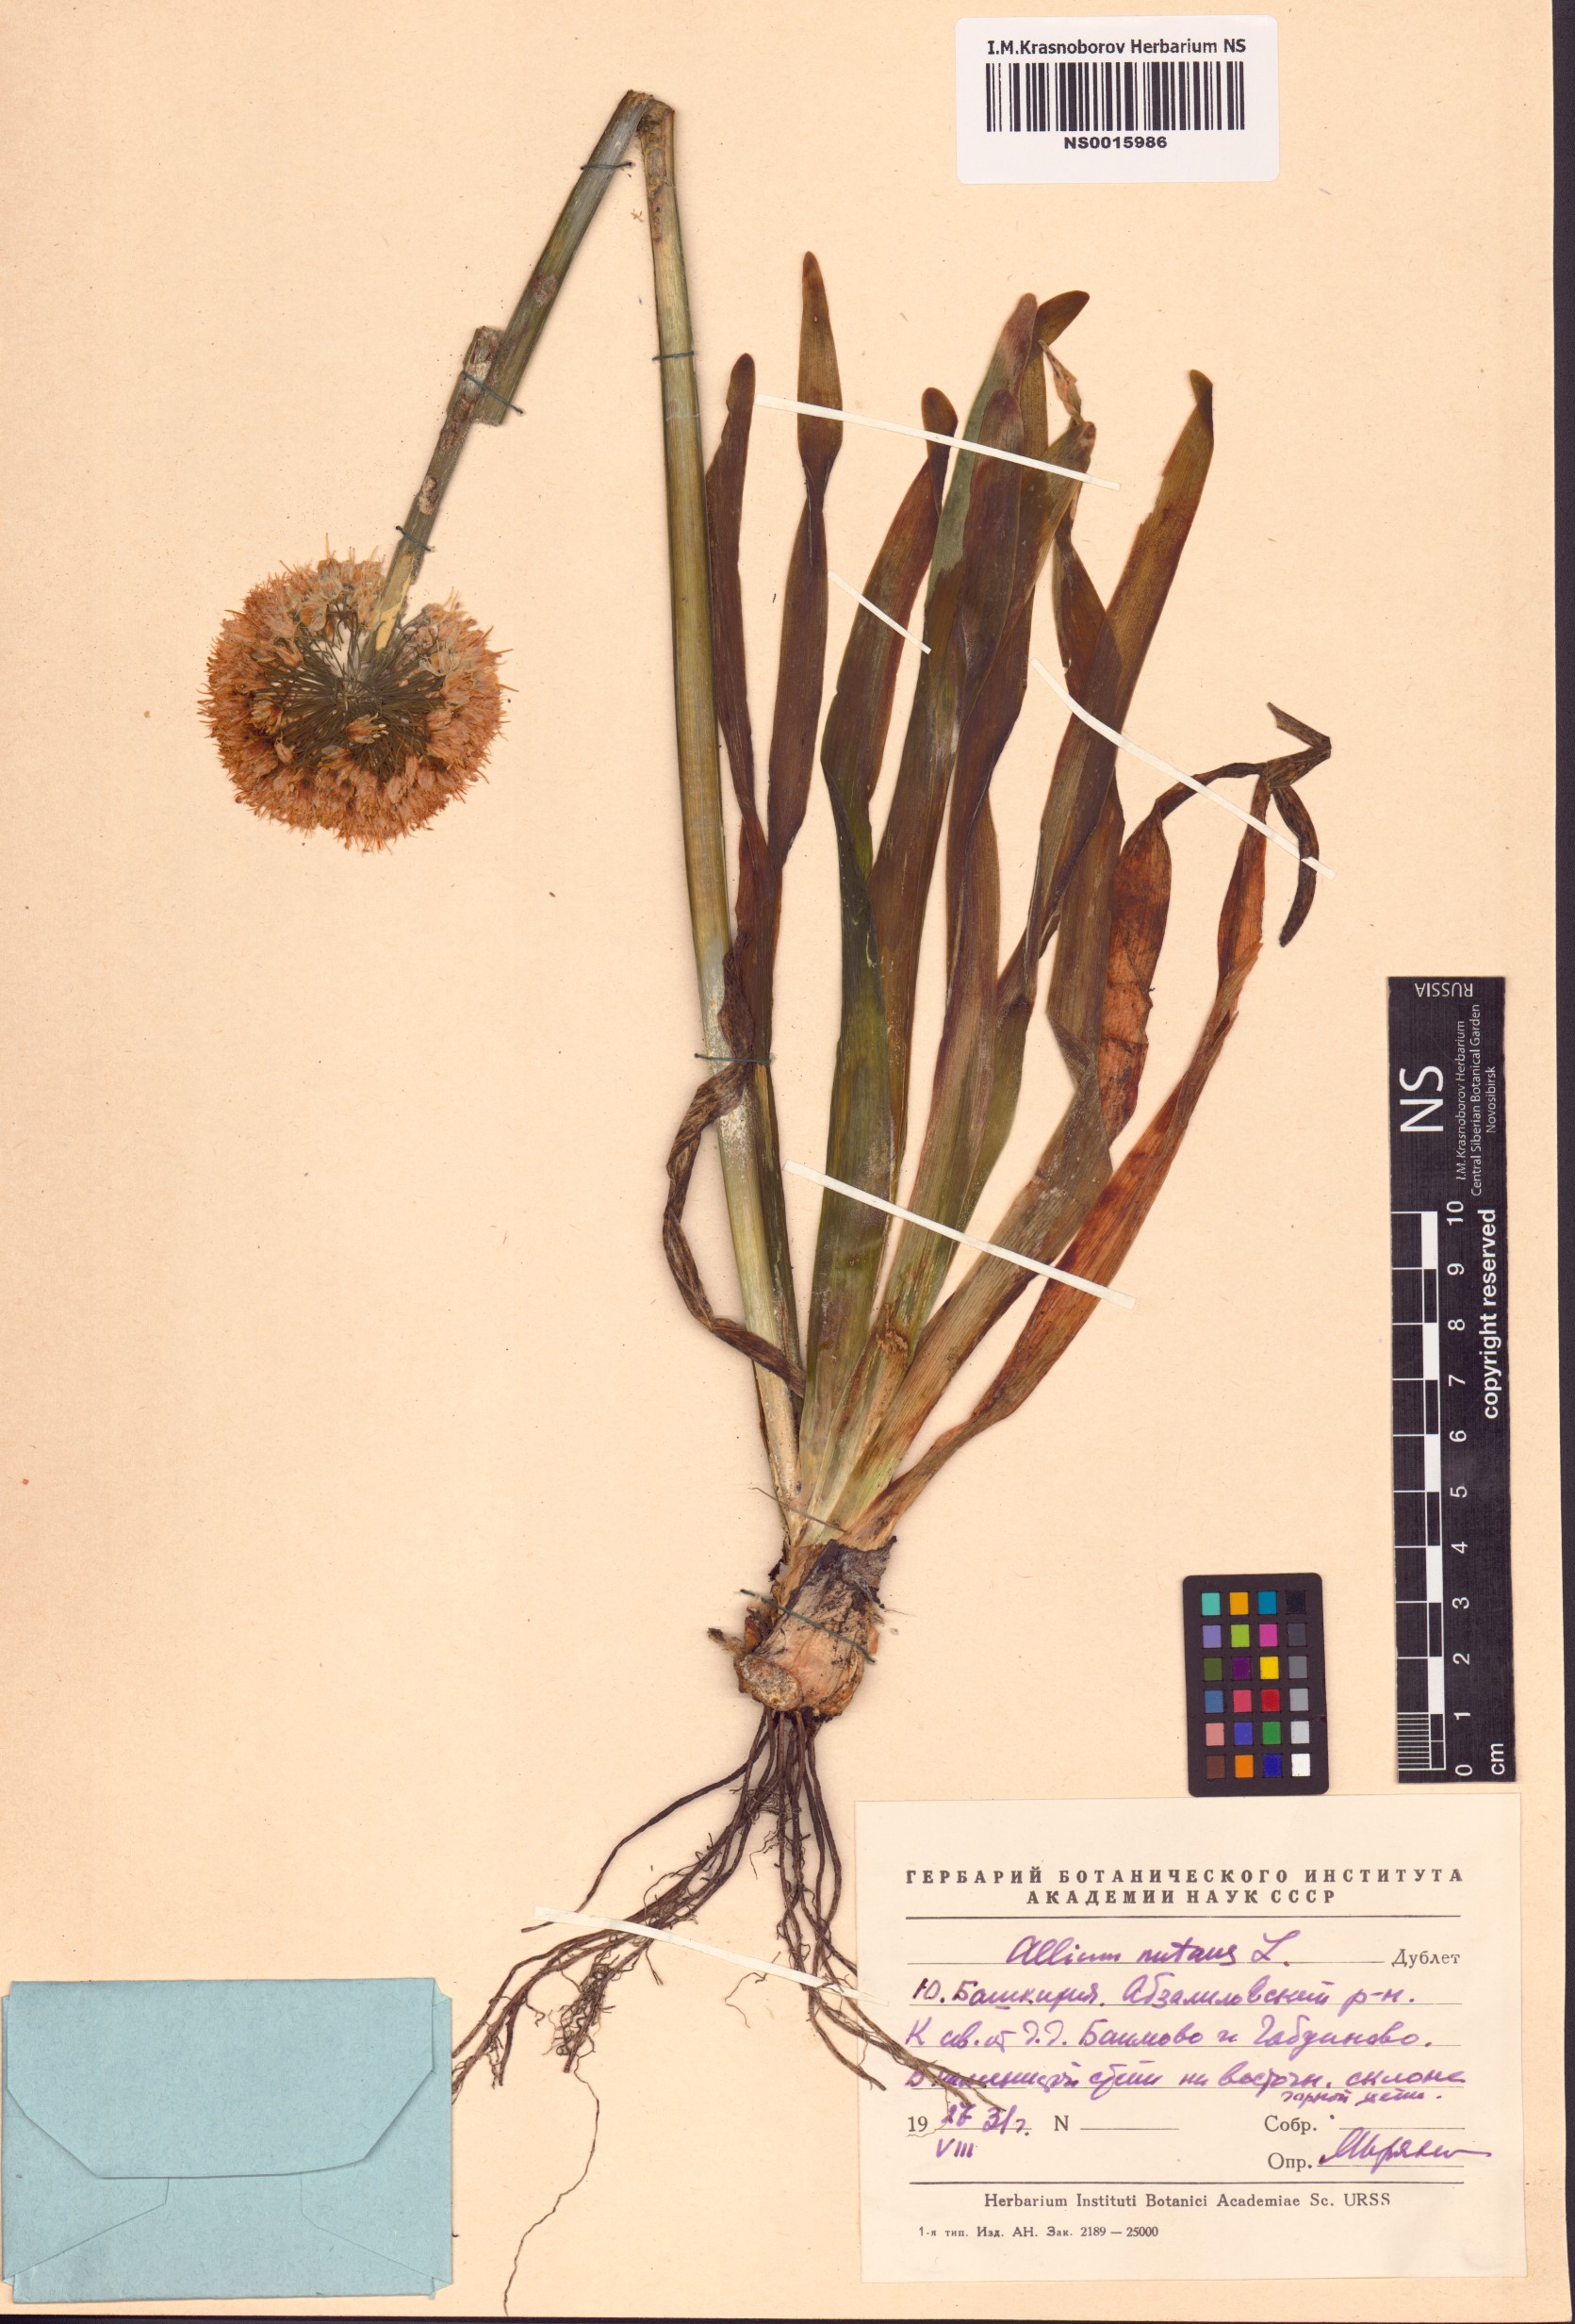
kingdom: Plantae
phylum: Tracheophyta
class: Liliopsida
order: Asparagales
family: Amaryllidaceae
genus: Allium
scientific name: Allium nutans
